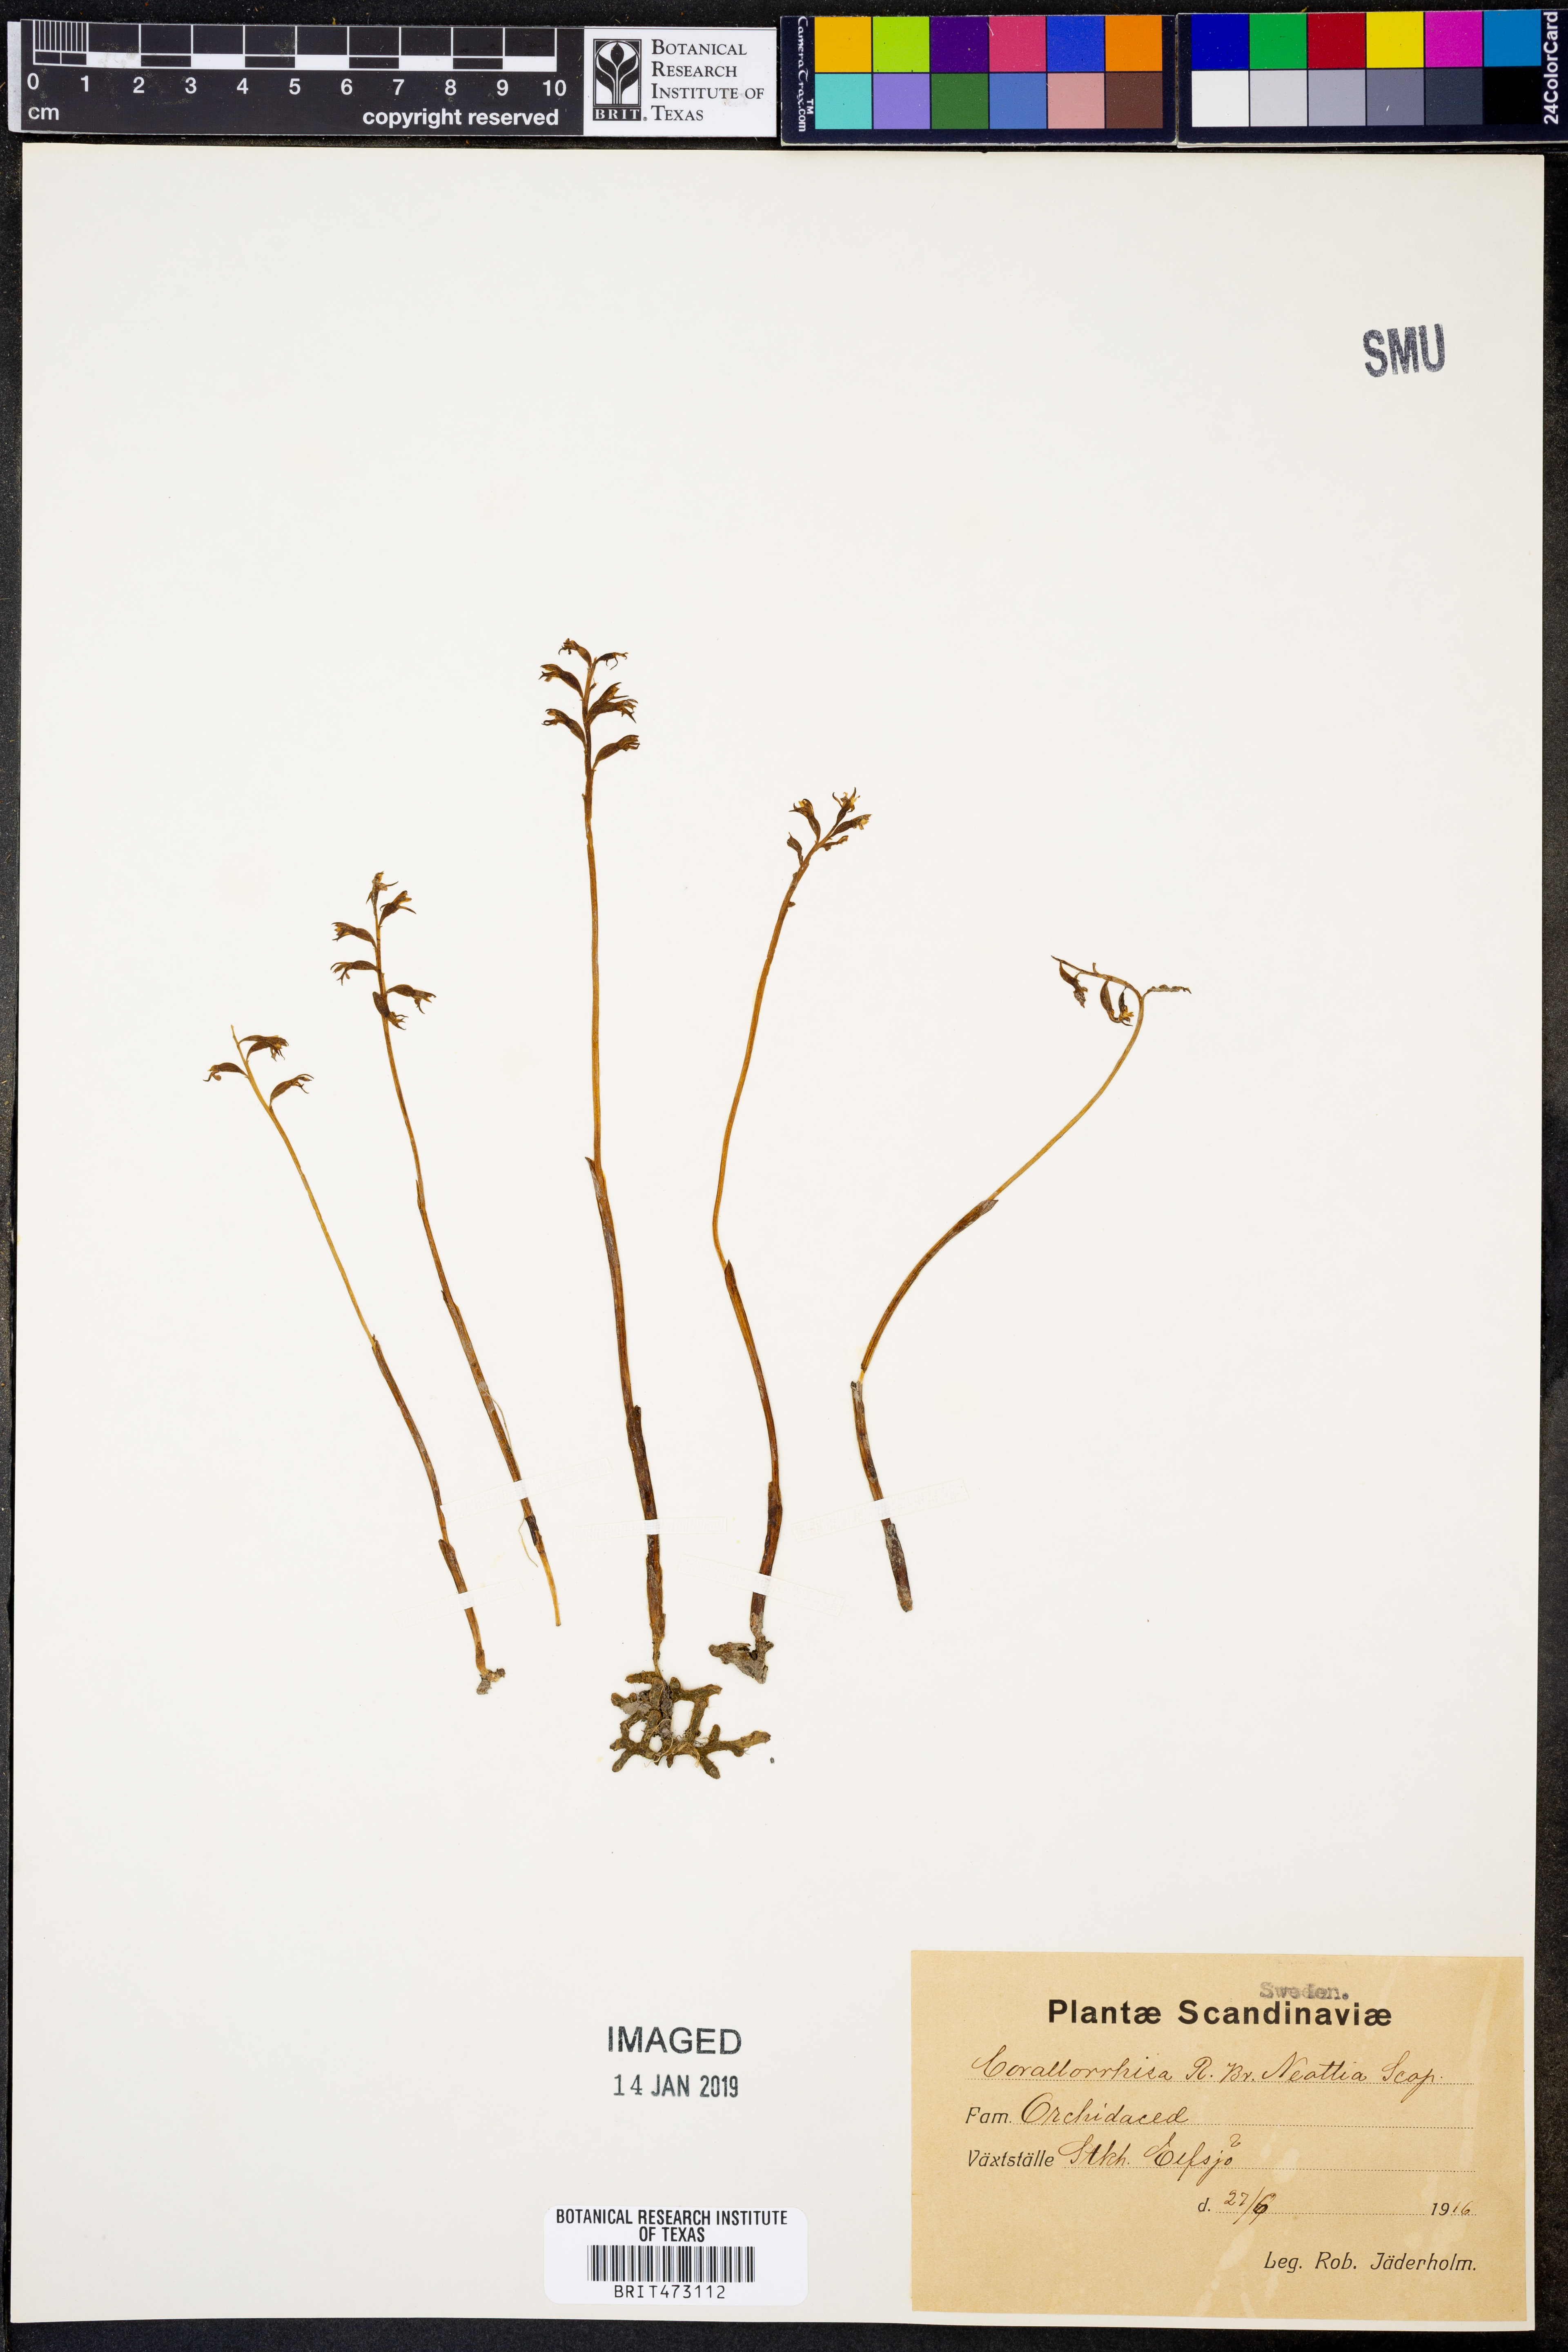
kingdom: Plantae
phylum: Tracheophyta
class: Liliopsida
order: Asparagales
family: Orchidaceae
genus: Corallorhiza
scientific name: Corallorhiza trifida
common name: Yellow coralroot
